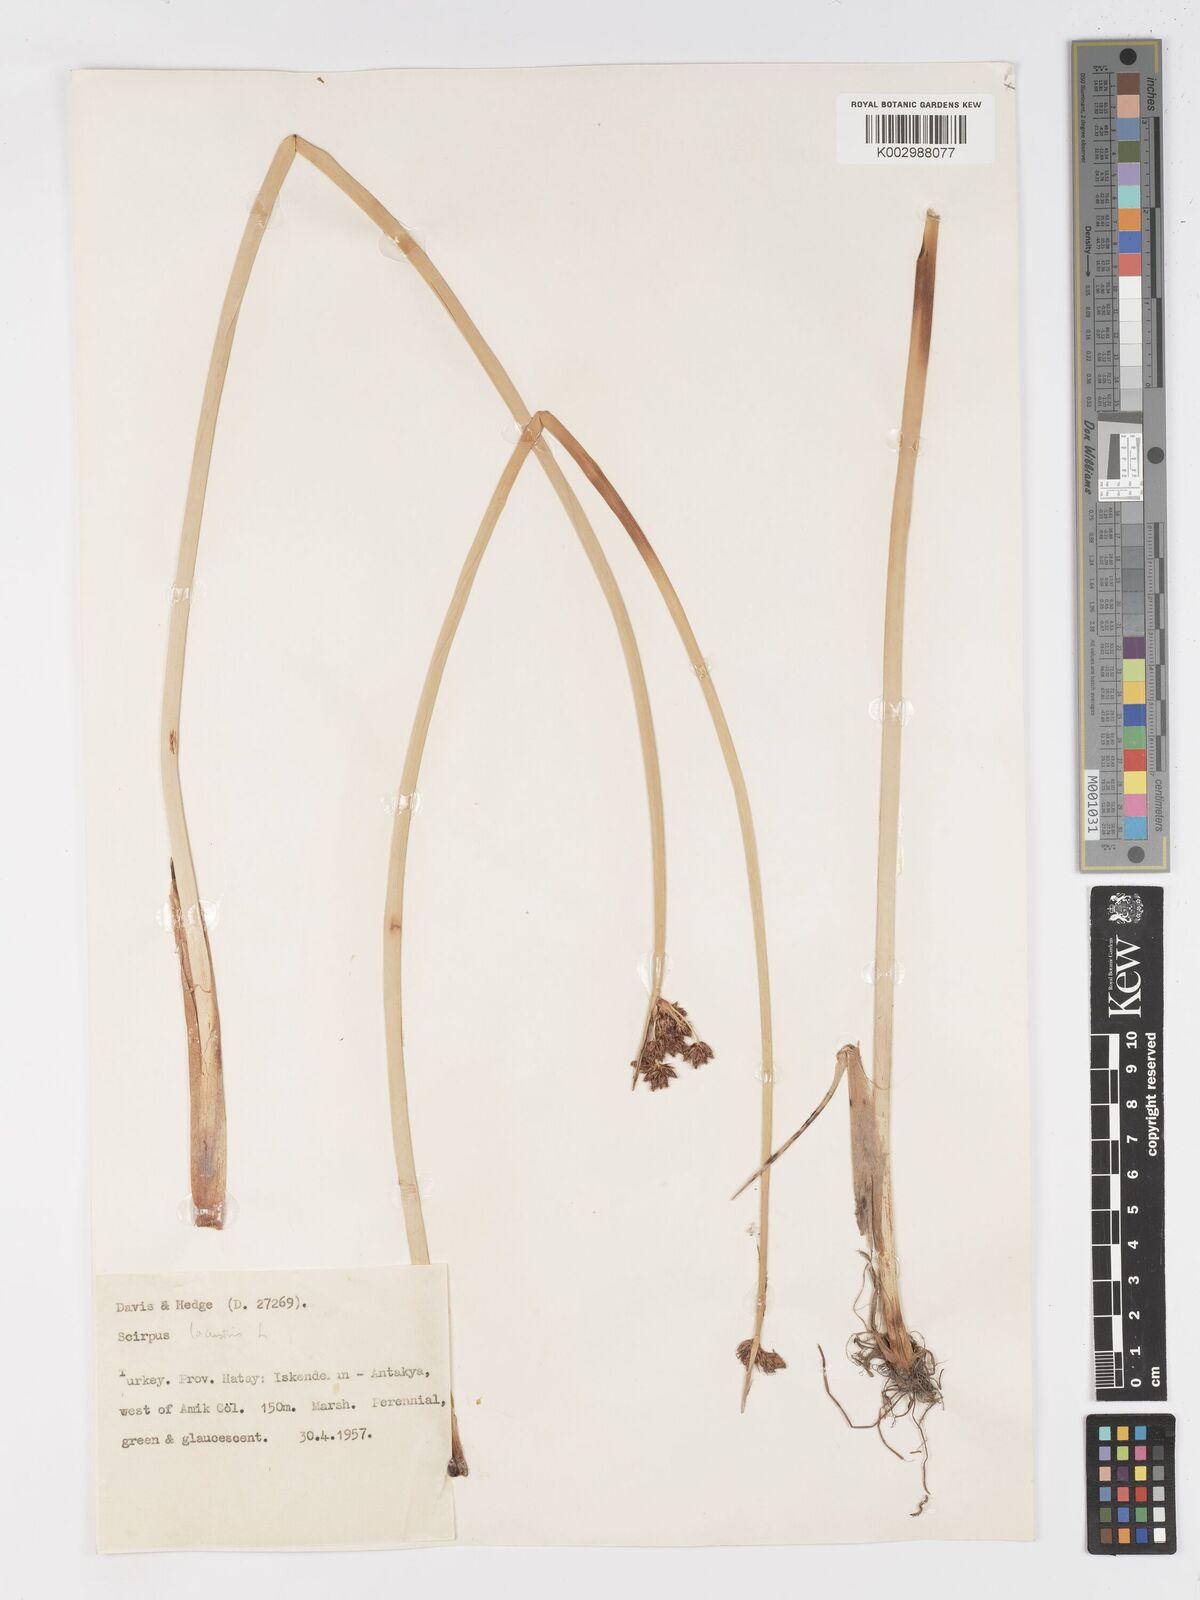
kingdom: Plantae
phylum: Tracheophyta
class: Liliopsida
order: Poales
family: Cyperaceae
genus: Schoenoplectus
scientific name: Schoenoplectus
